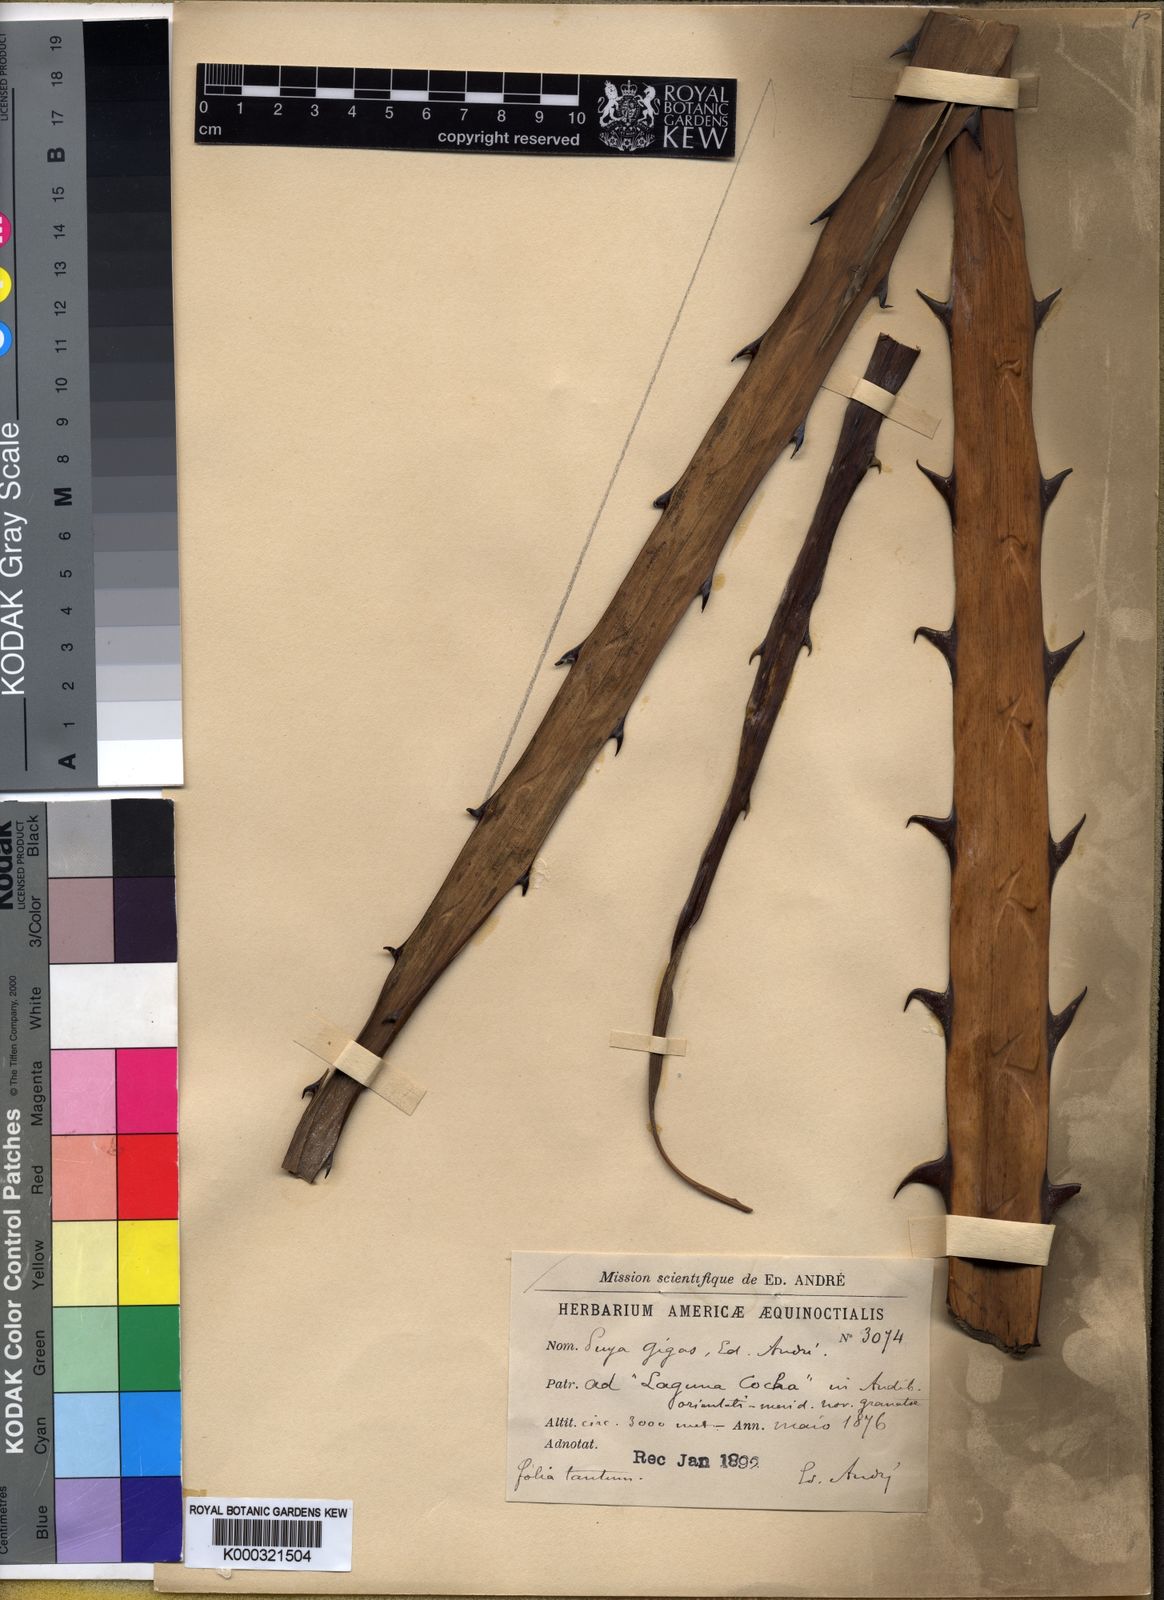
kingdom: Plantae
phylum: Tracheophyta
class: Liliopsida
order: Poales
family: Bromeliaceae
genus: Puya
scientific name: Puya gigas
